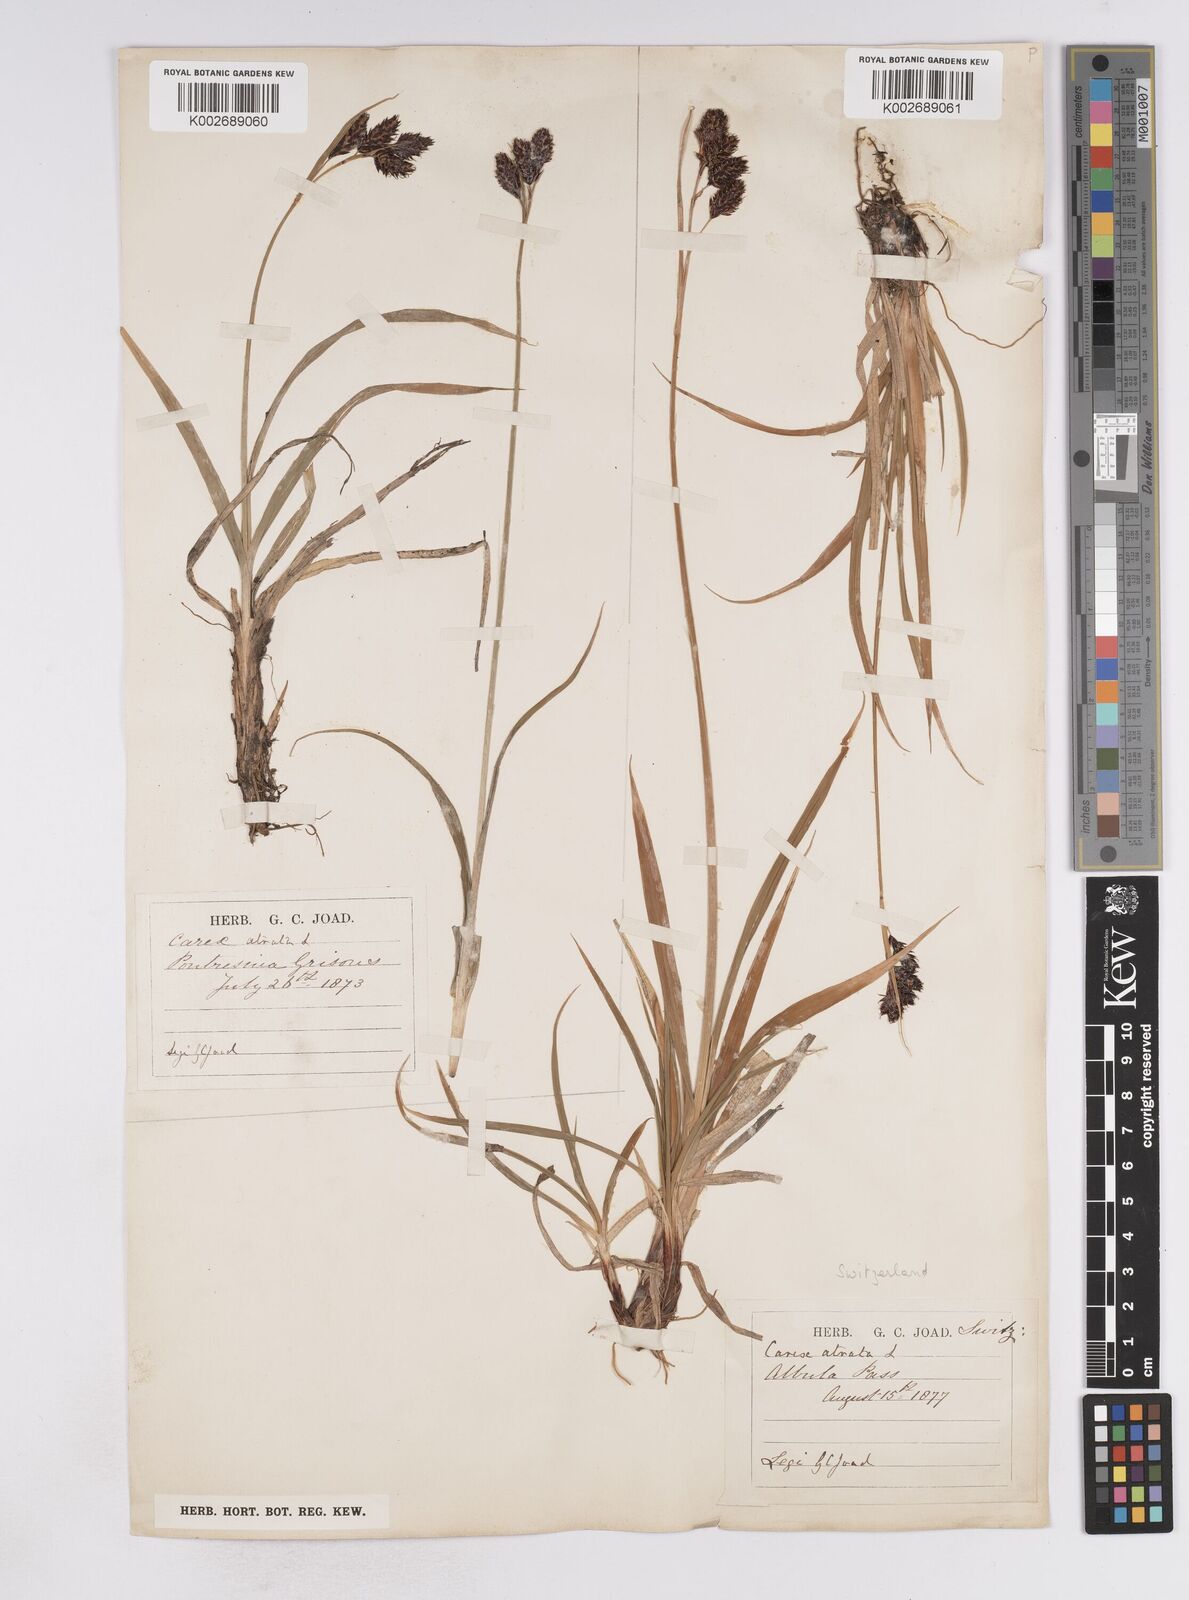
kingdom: Plantae
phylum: Tracheophyta
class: Liliopsida
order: Poales
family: Cyperaceae
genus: Carex
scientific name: Carex atrata
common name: Black alpine sedge
